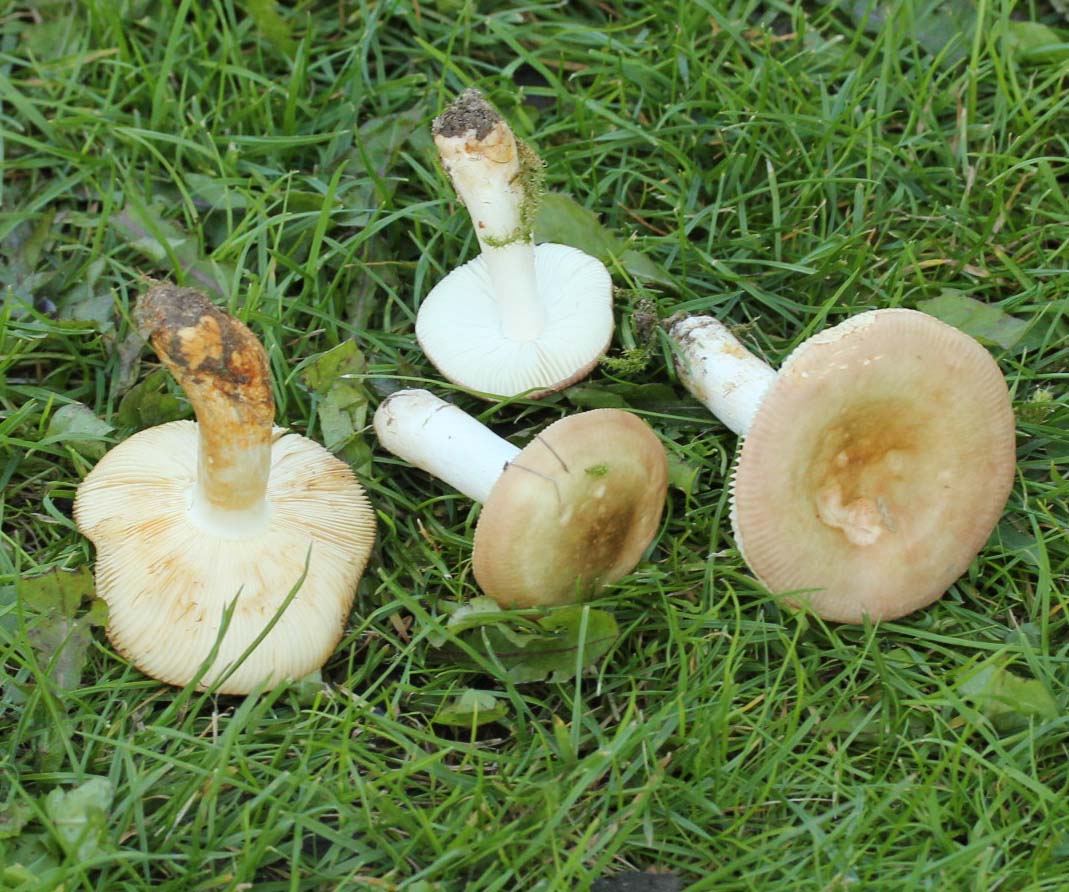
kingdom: Fungi
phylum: Basidiomycota
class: Agaricomycetes
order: Russulales
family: Russulaceae
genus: Russula
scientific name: Russula versicolor
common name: foranderlig skørhat
